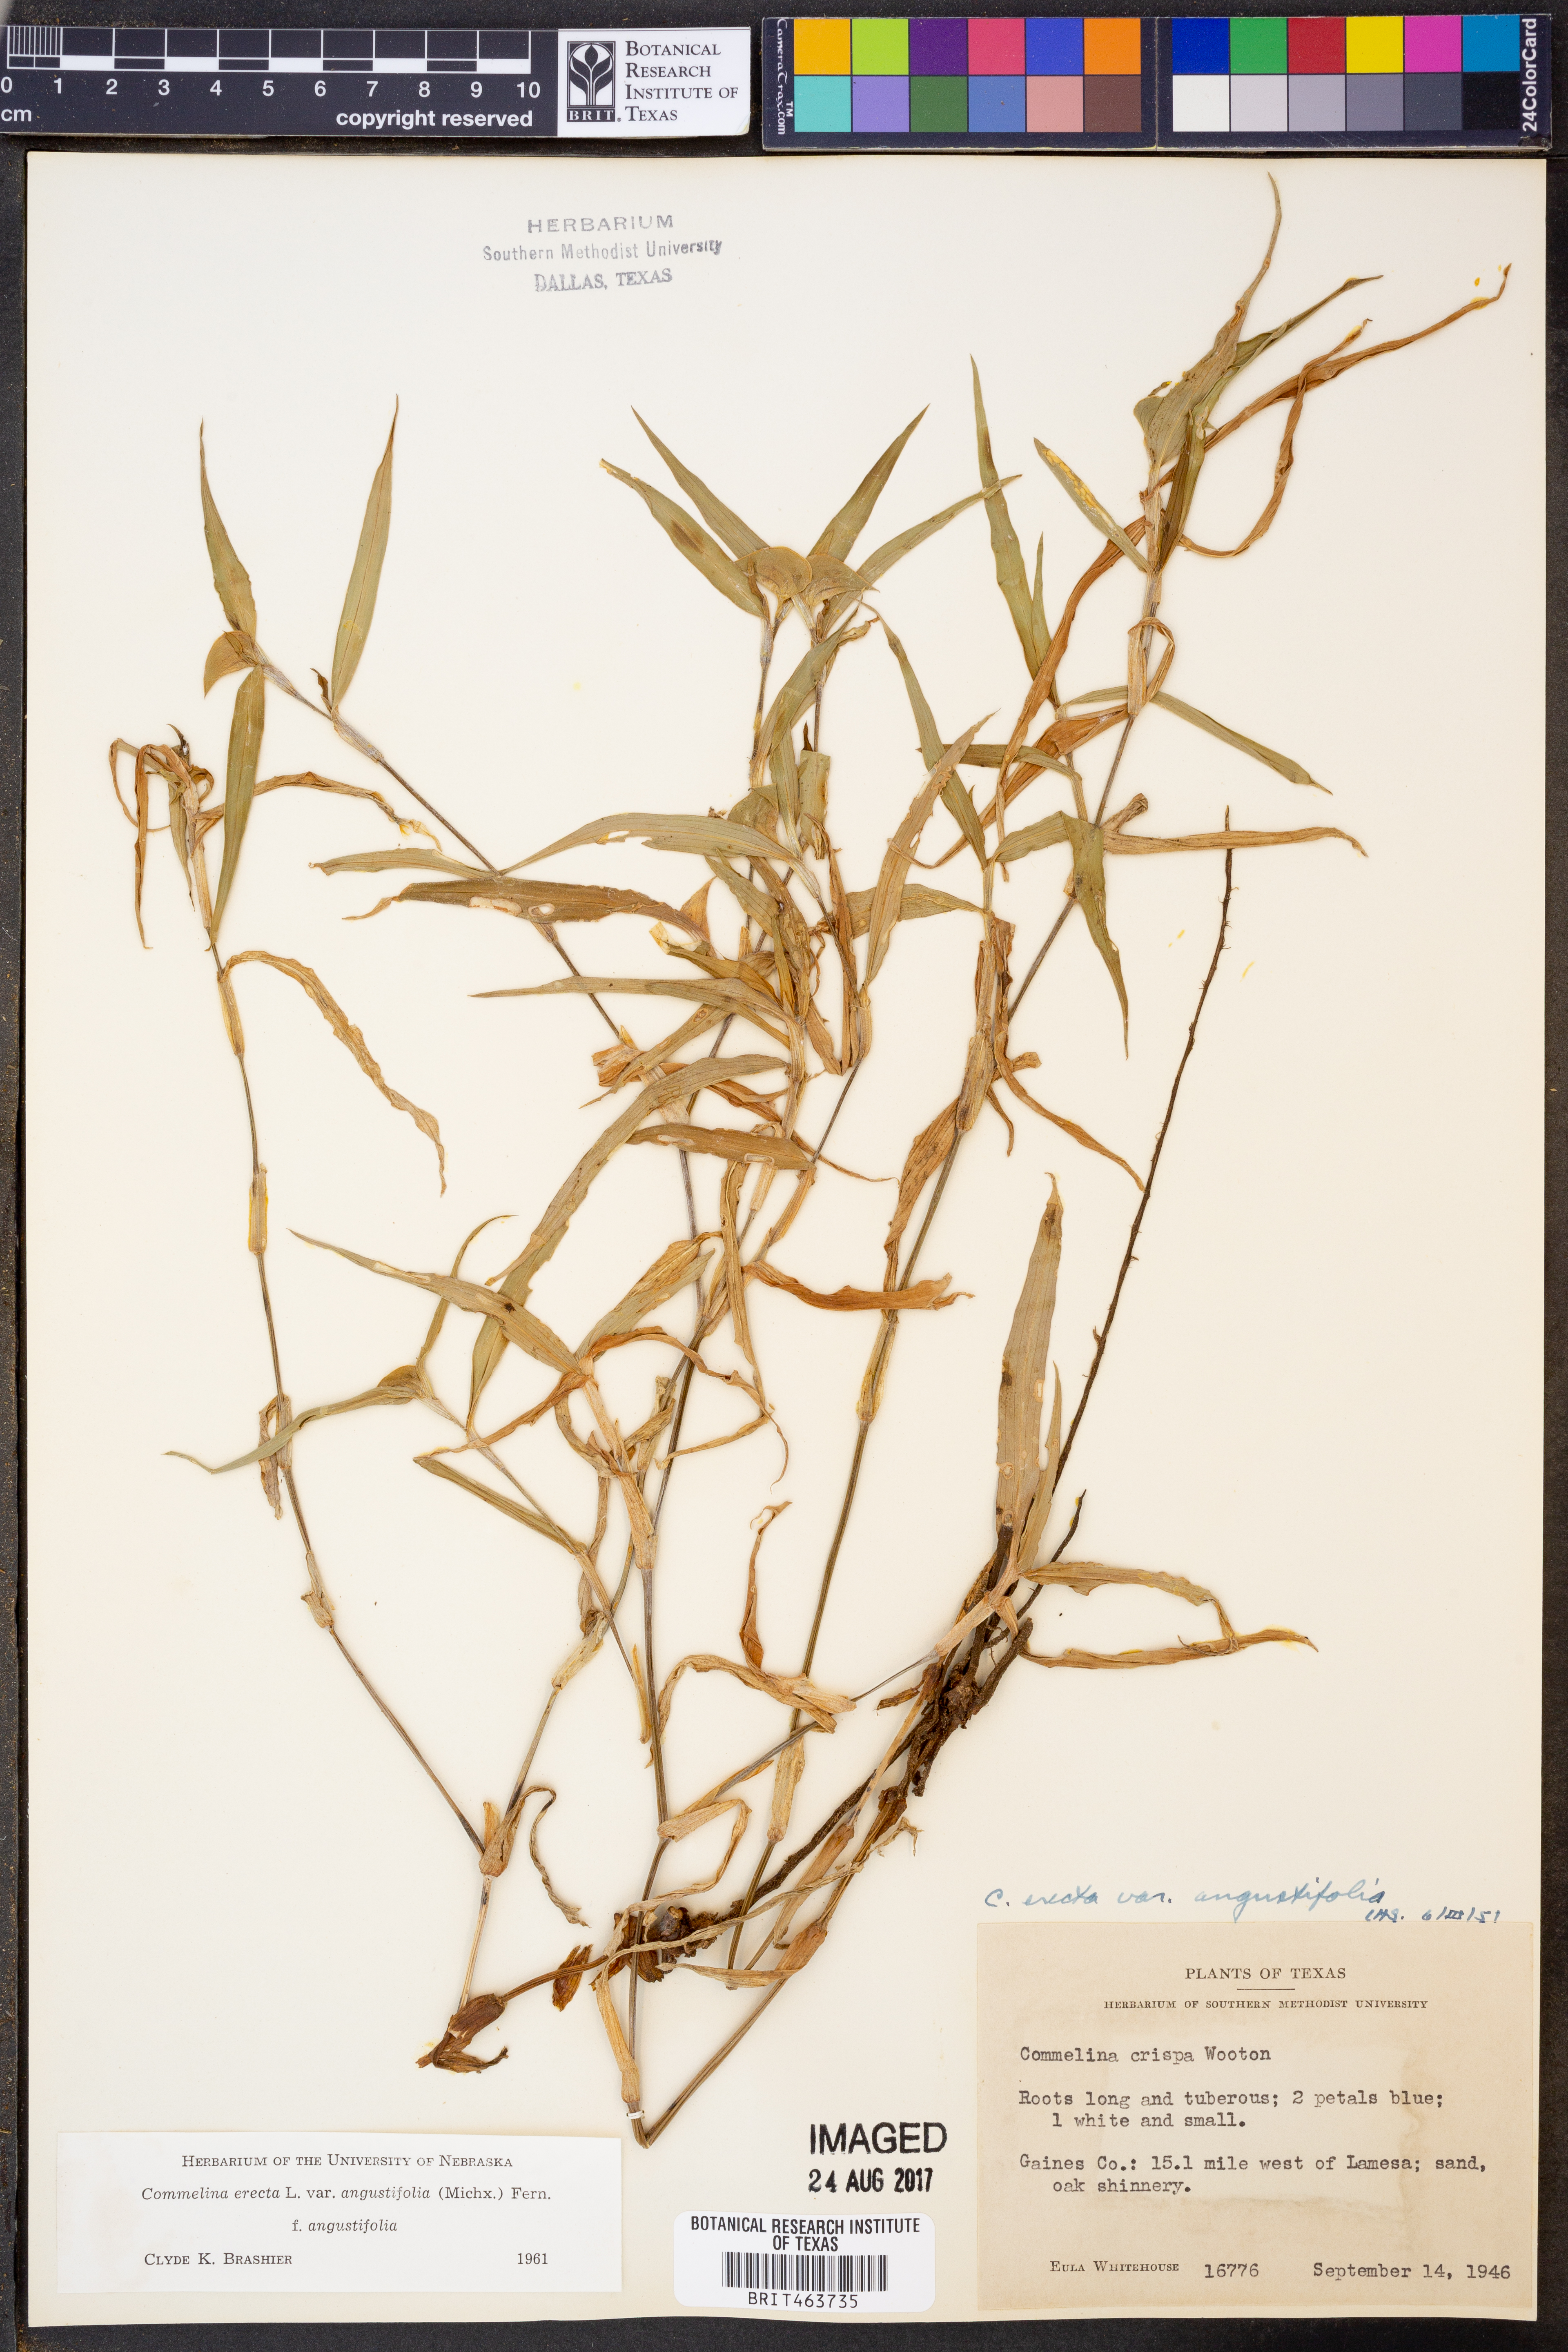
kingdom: Plantae
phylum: Tracheophyta
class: Liliopsida
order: Commelinales
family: Commelinaceae
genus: Commelina
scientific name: Commelina erecta
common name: Blousel blommetjie
